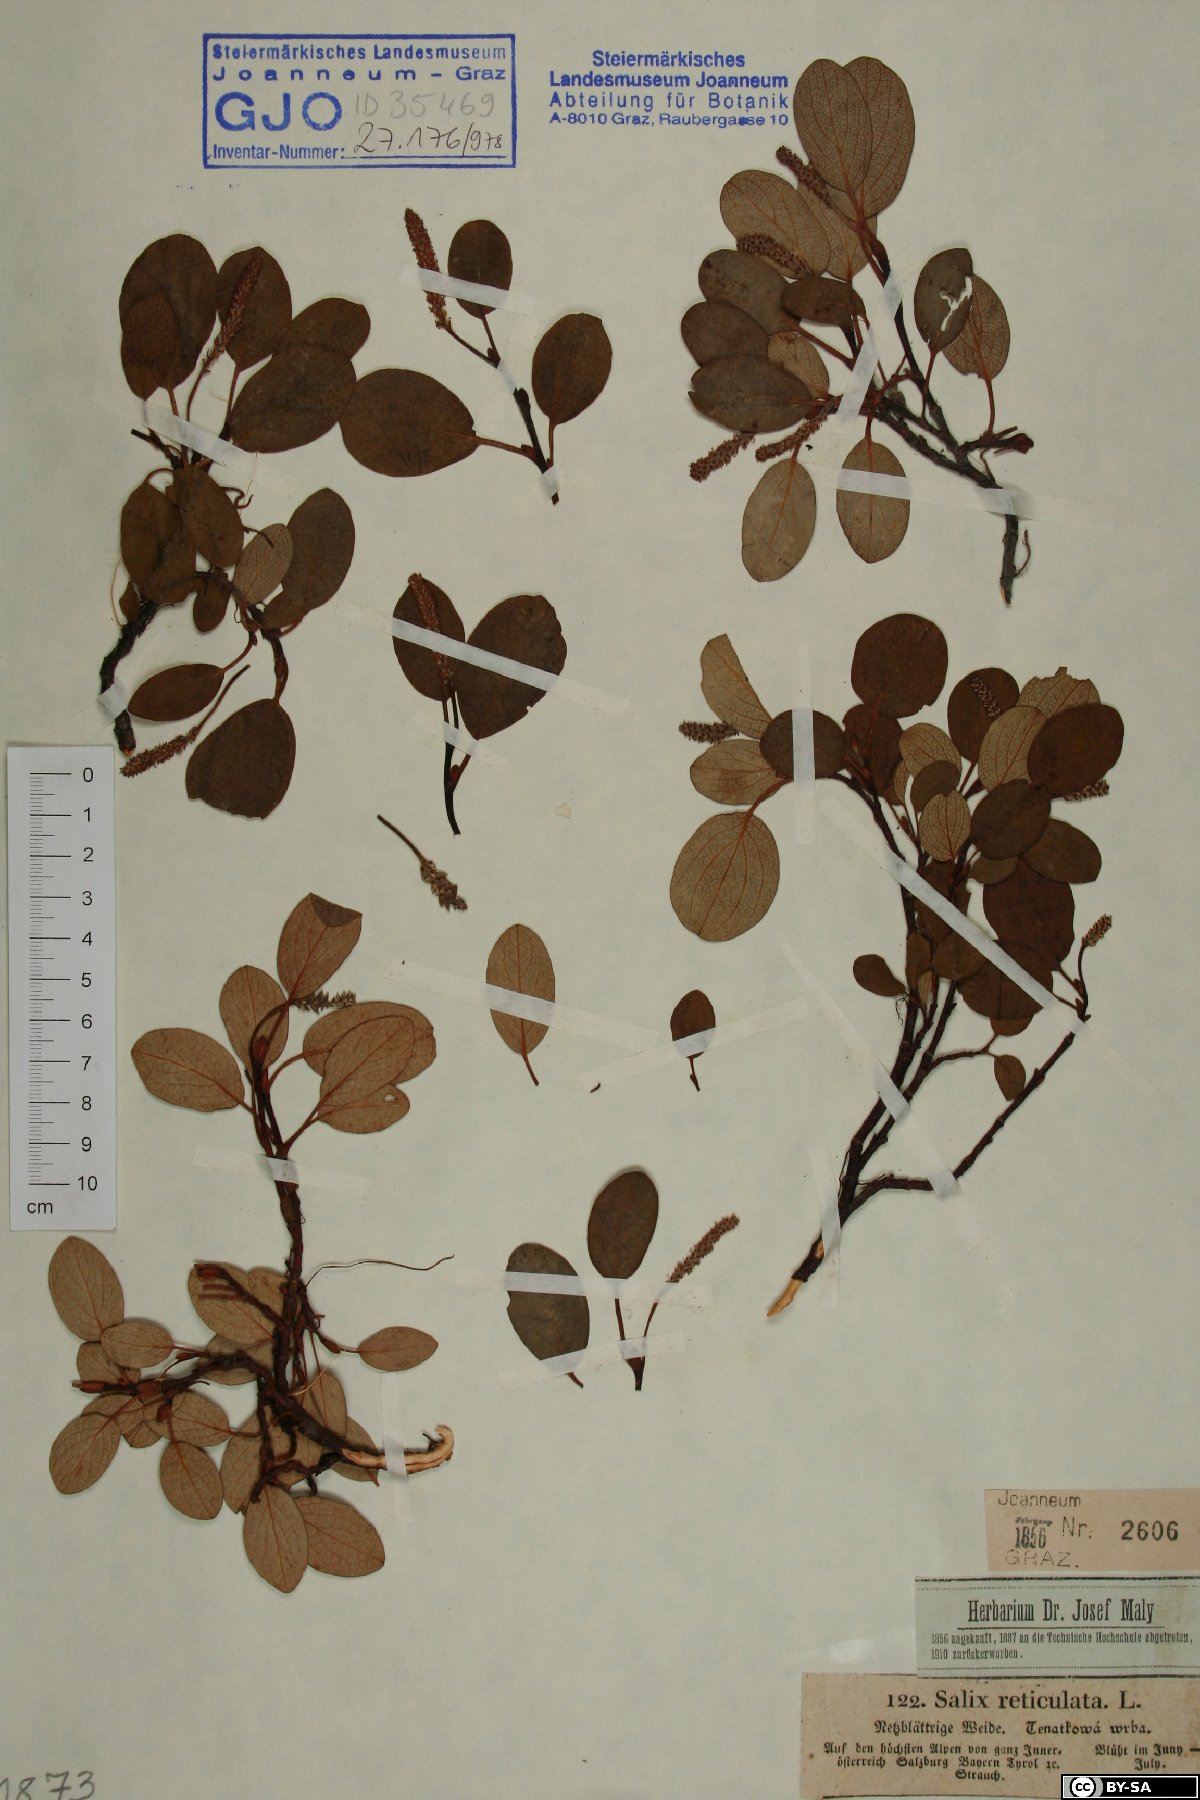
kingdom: Plantae
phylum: Tracheophyta
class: Magnoliopsida
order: Malpighiales
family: Salicaceae
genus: Salix
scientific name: Salix reticulata
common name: Net-leaved willow
